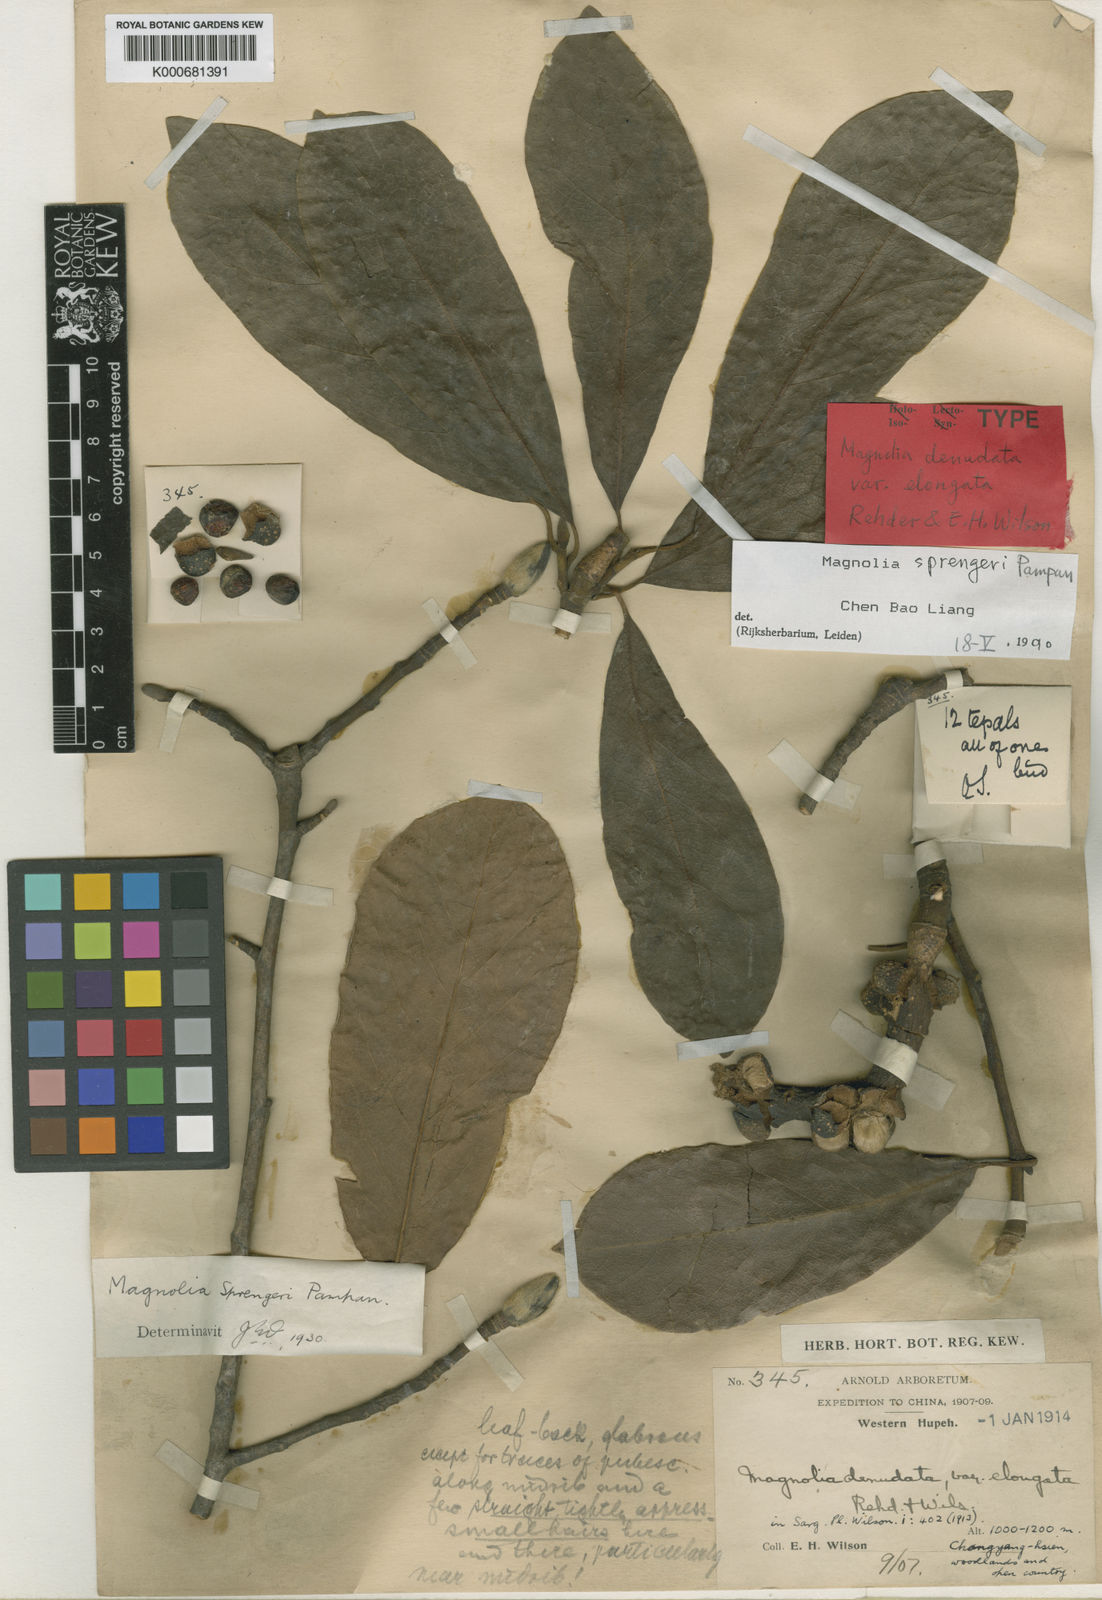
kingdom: Plantae
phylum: Tracheophyta
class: Magnoliopsida
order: Magnoliales
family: Magnoliaceae
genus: Magnolia
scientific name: Magnolia sprengeri
